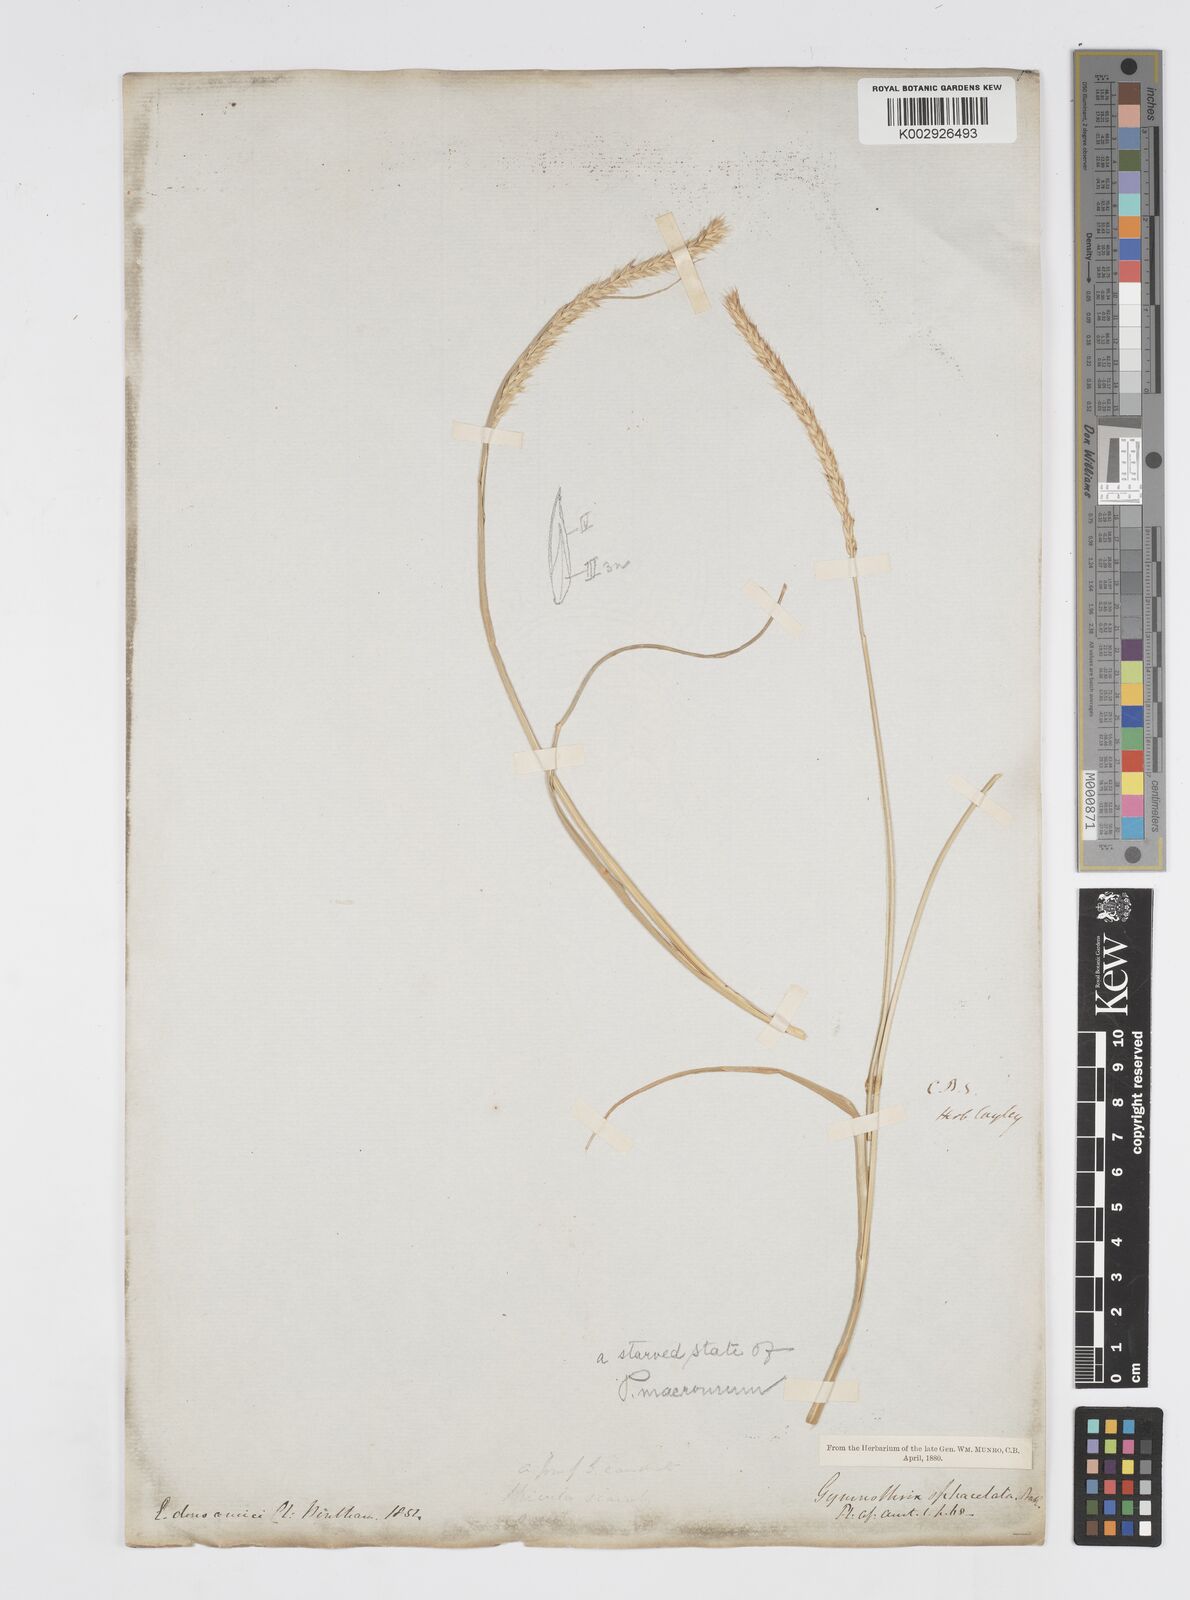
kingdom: Plantae
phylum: Tracheophyta
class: Liliopsida
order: Poales
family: Poaceae
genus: Cenchrus
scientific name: Cenchrus caudatus
